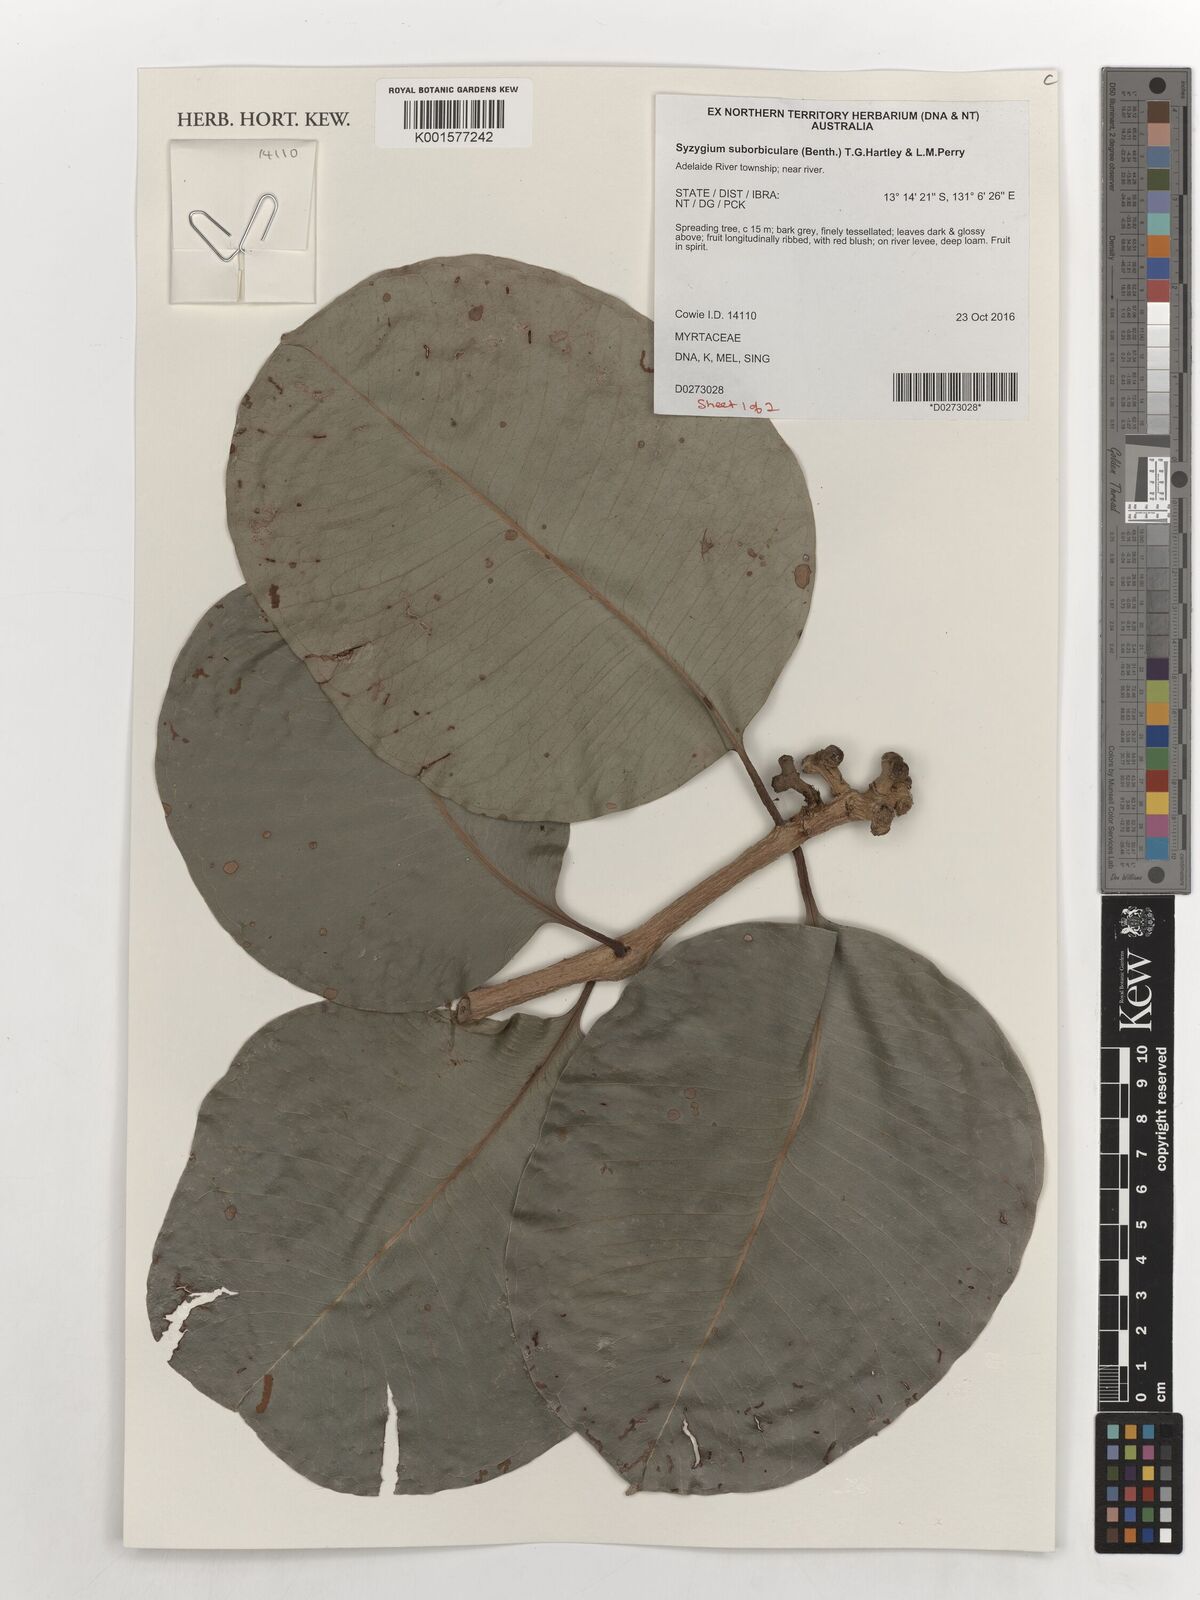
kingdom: Plantae
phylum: Tracheophyta
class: Magnoliopsida
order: Myrtales
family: Myrtaceae
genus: Syzygium
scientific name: Syzygium suborbiculare
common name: Red bush apple
